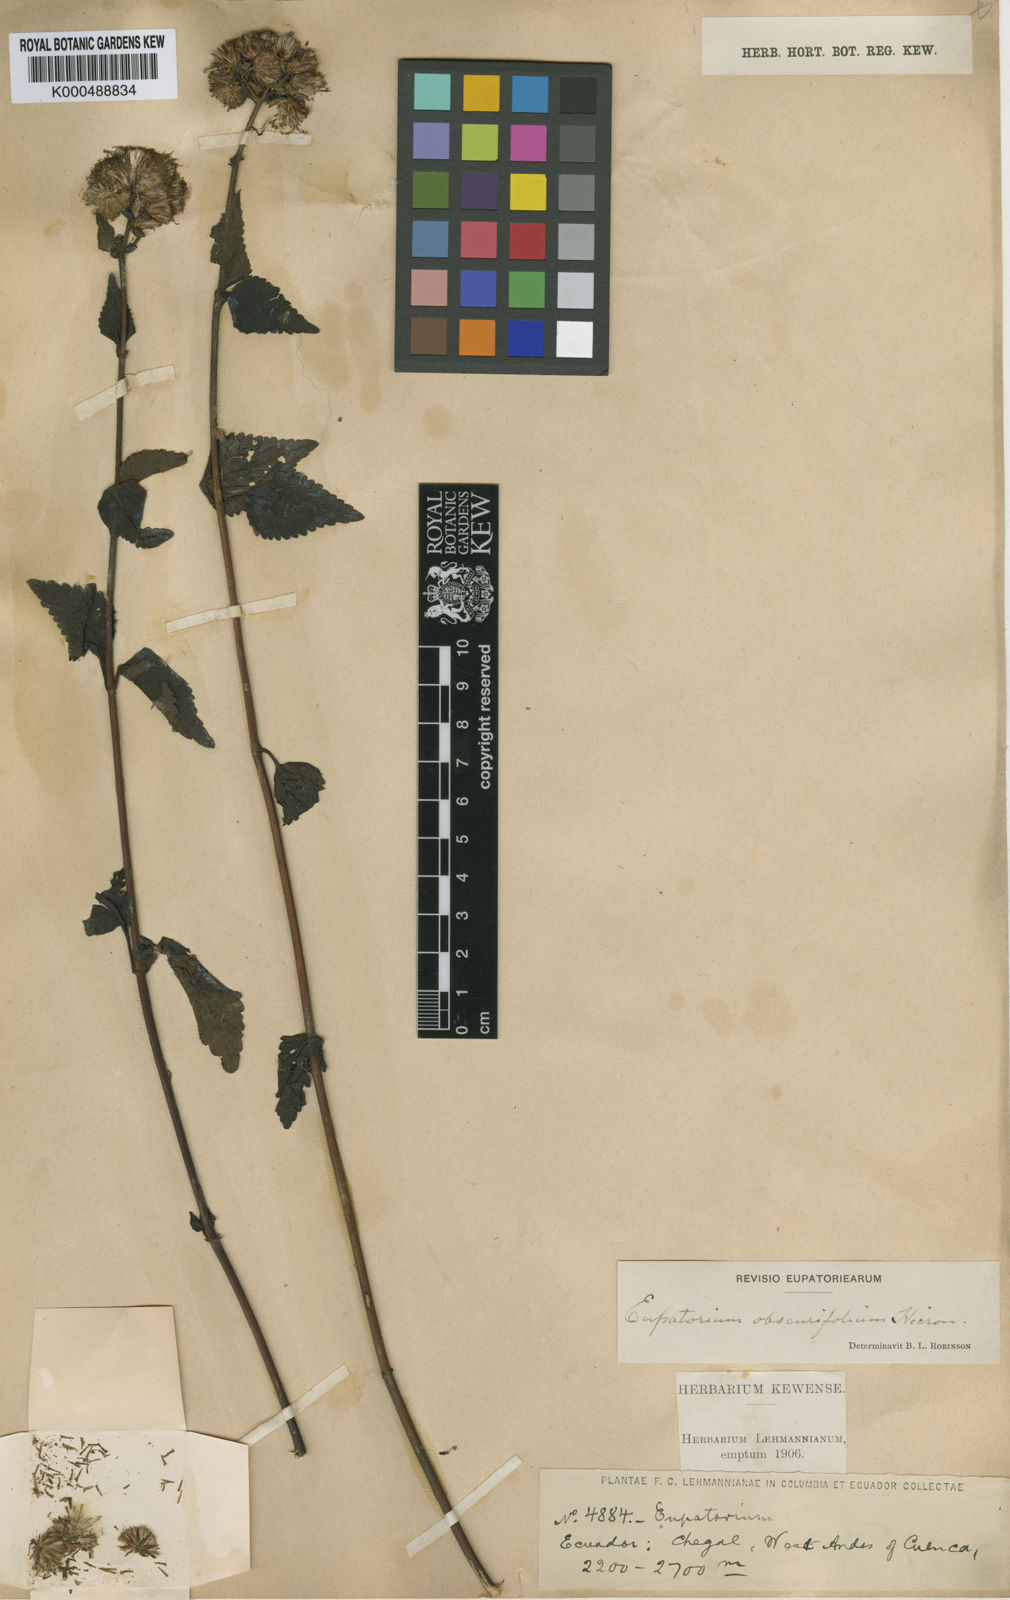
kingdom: Plantae
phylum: Tracheophyta
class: Magnoliopsida
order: Asterales
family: Asteraceae
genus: Fleischmannia
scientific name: Fleischmannia obscurifolia
